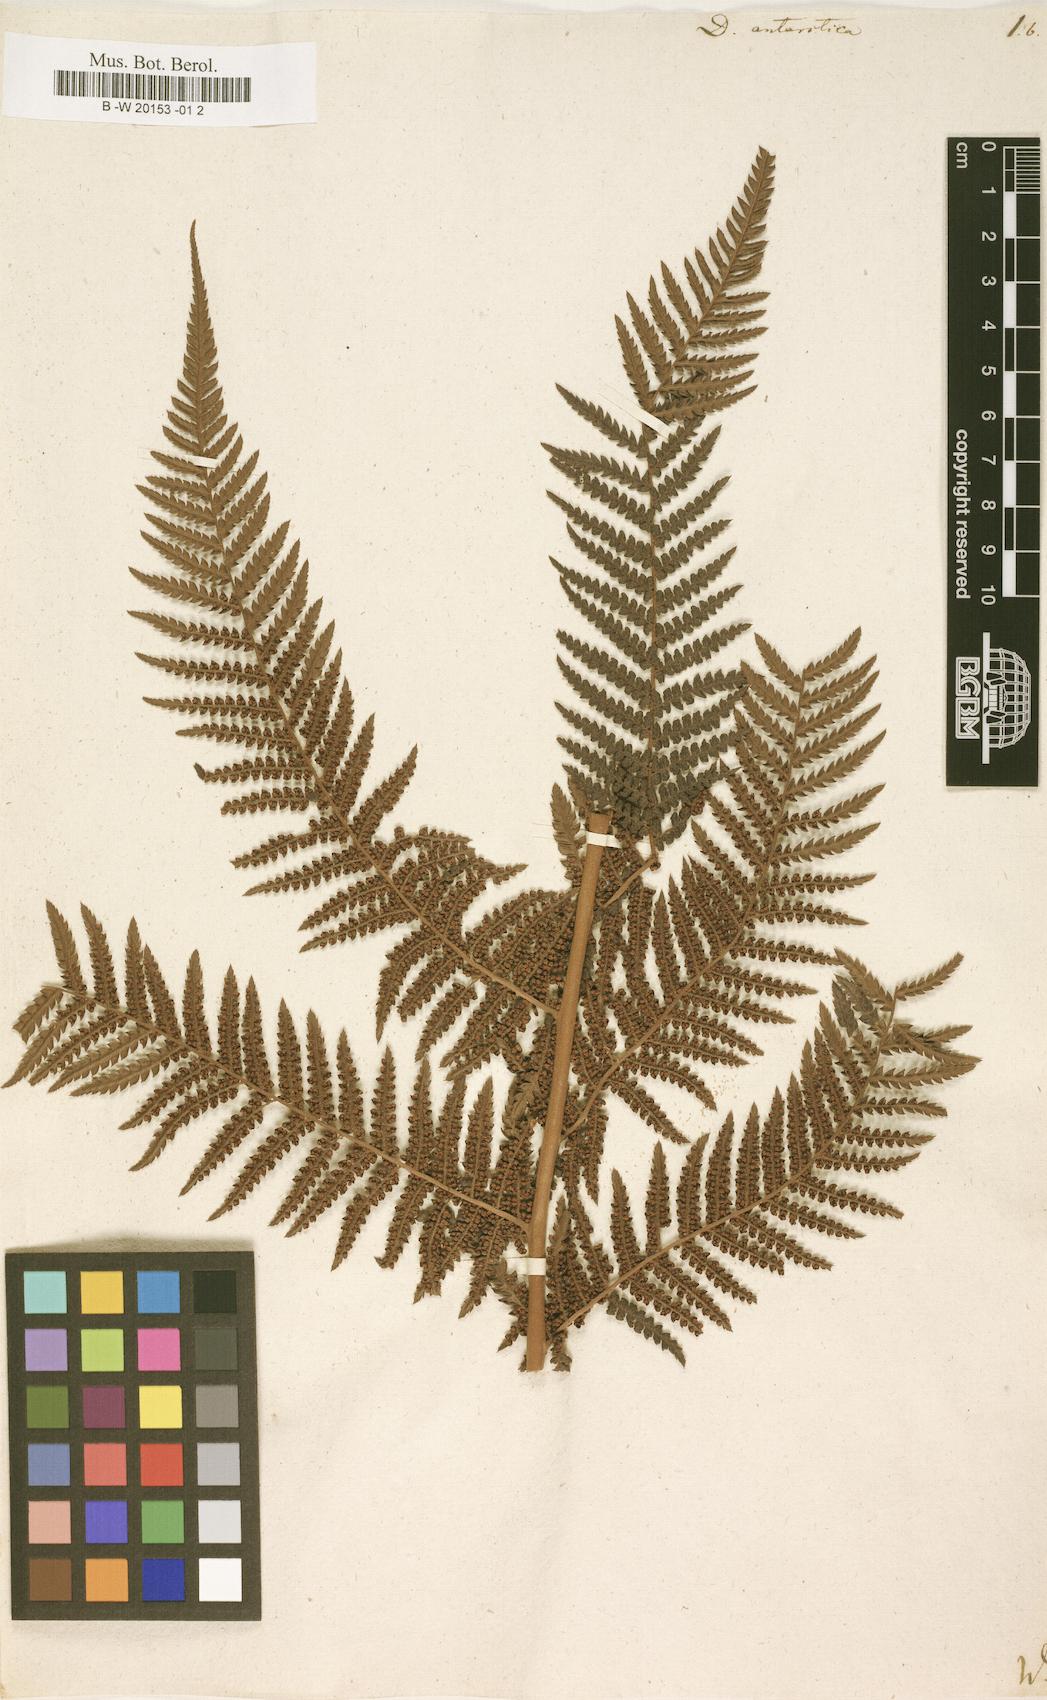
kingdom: Plantae
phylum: Tracheophyta
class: Polypodiopsida
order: Cyatheales
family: Dicksoniaceae
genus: Dicksonia
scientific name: Dicksonia antarctica
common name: Australian treefern
